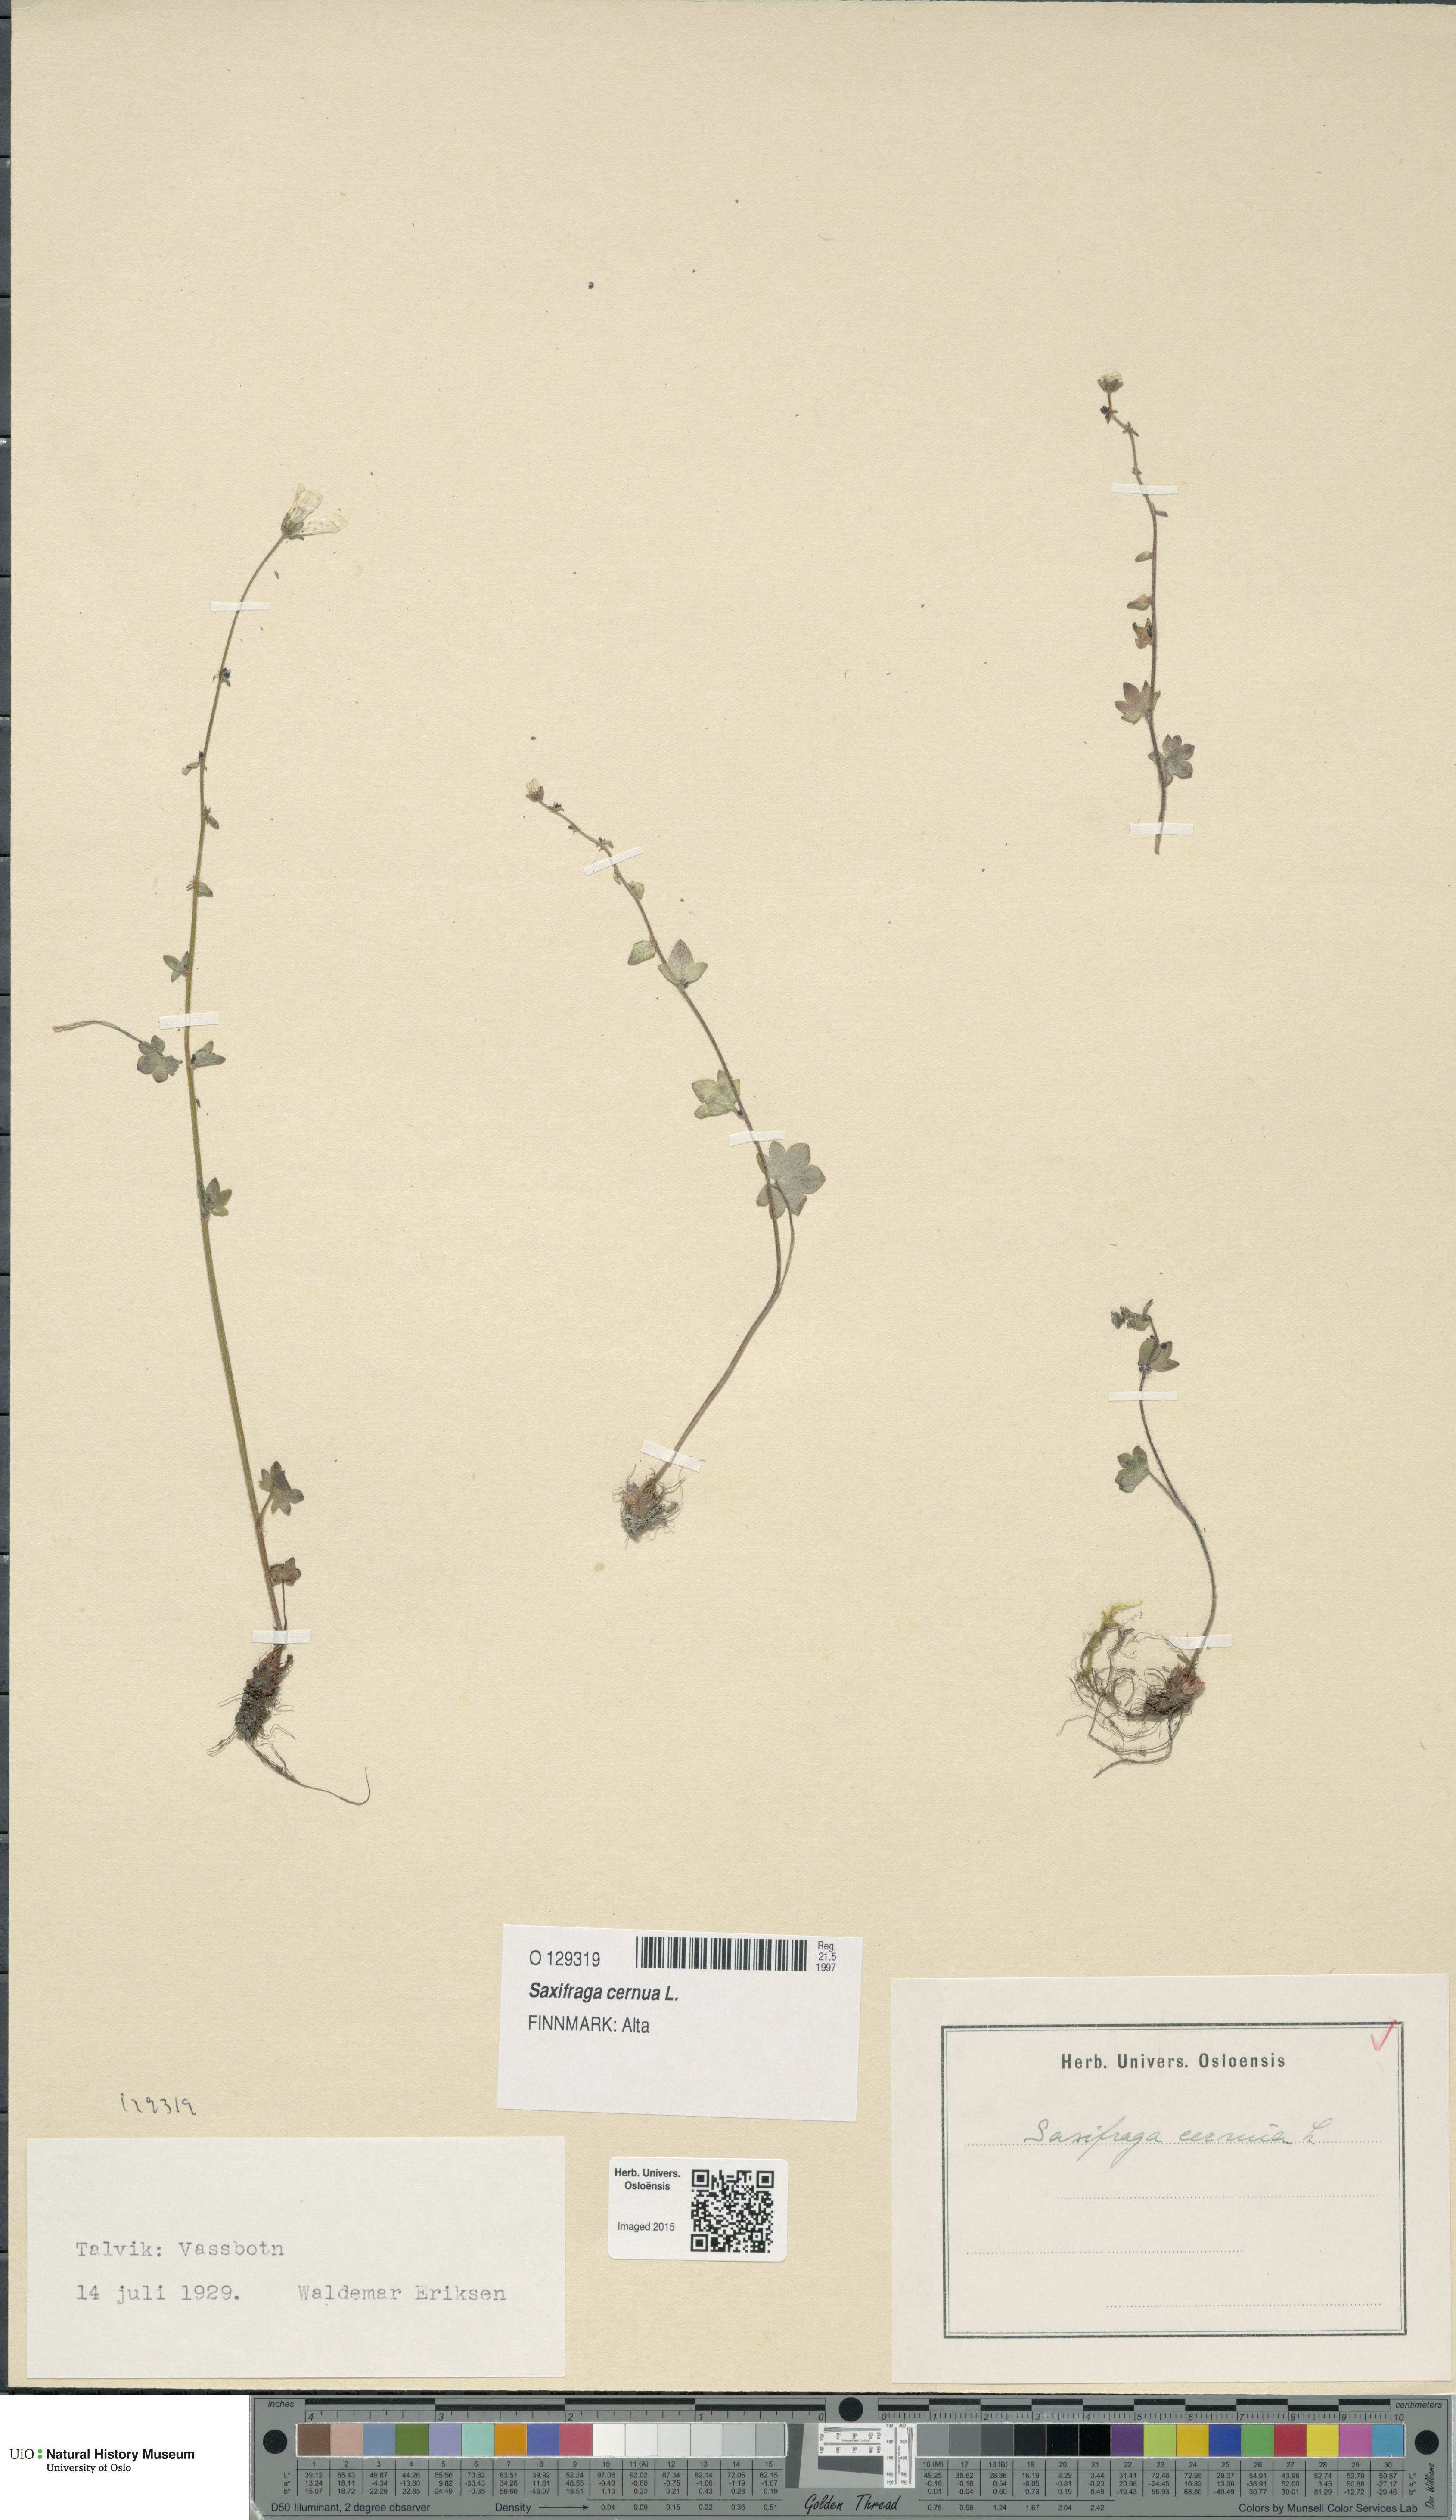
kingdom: Plantae
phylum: Tracheophyta
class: Magnoliopsida
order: Saxifragales
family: Saxifragaceae
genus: Saxifraga
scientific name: Saxifraga cernua
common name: Drooping saxifrage
